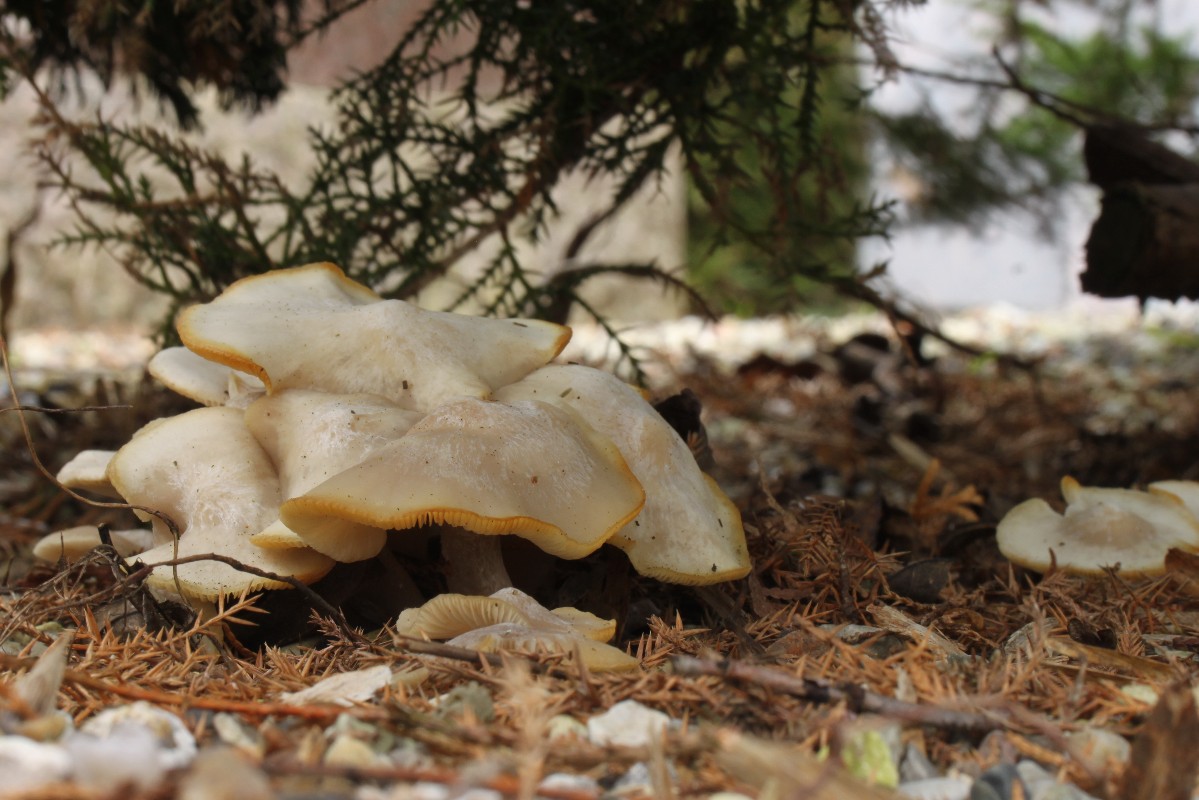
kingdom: Fungi
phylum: Basidiomycota
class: Agaricomycetes
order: Agaricales
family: Tricholomataceae
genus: Leucocybe
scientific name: Leucocybe connata
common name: knippe-tragthat
